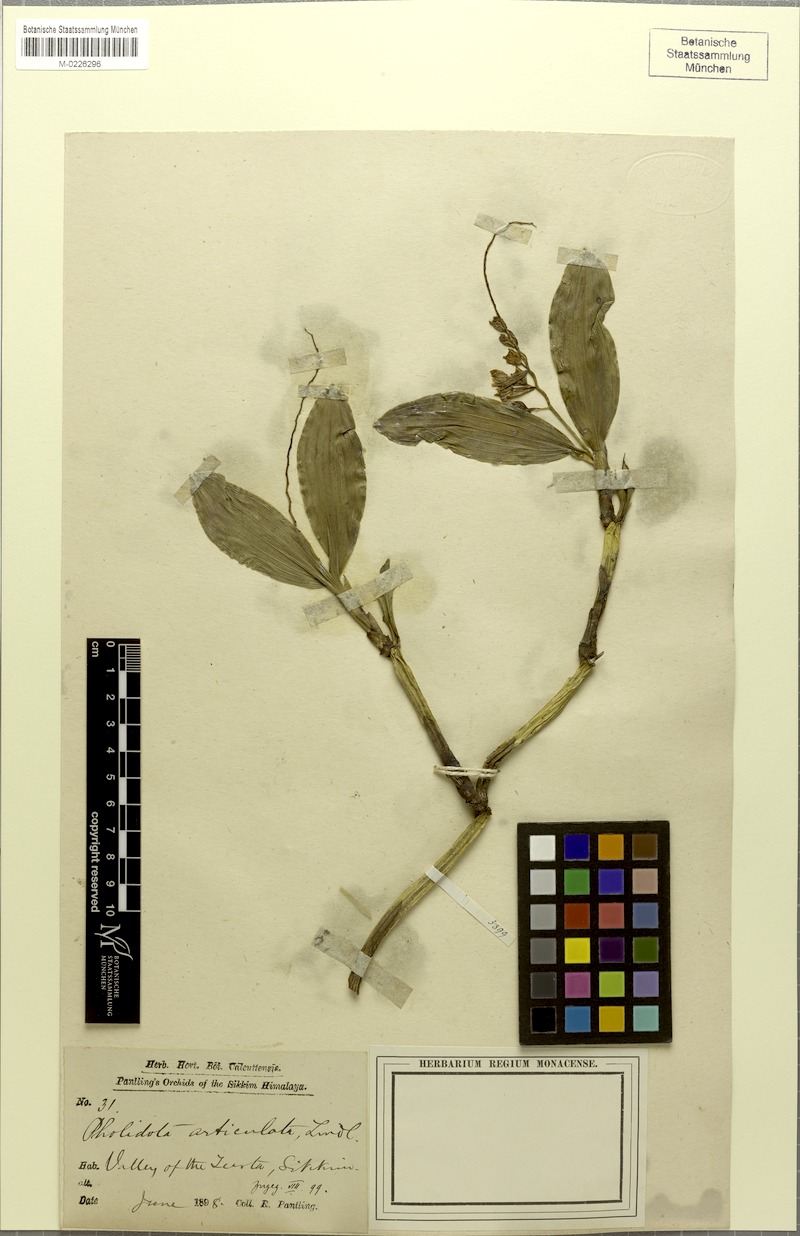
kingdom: Plantae
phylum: Tracheophyta
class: Liliopsida
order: Asparagales
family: Orchidaceae
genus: Coelogyne
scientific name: Coelogyne articulata
